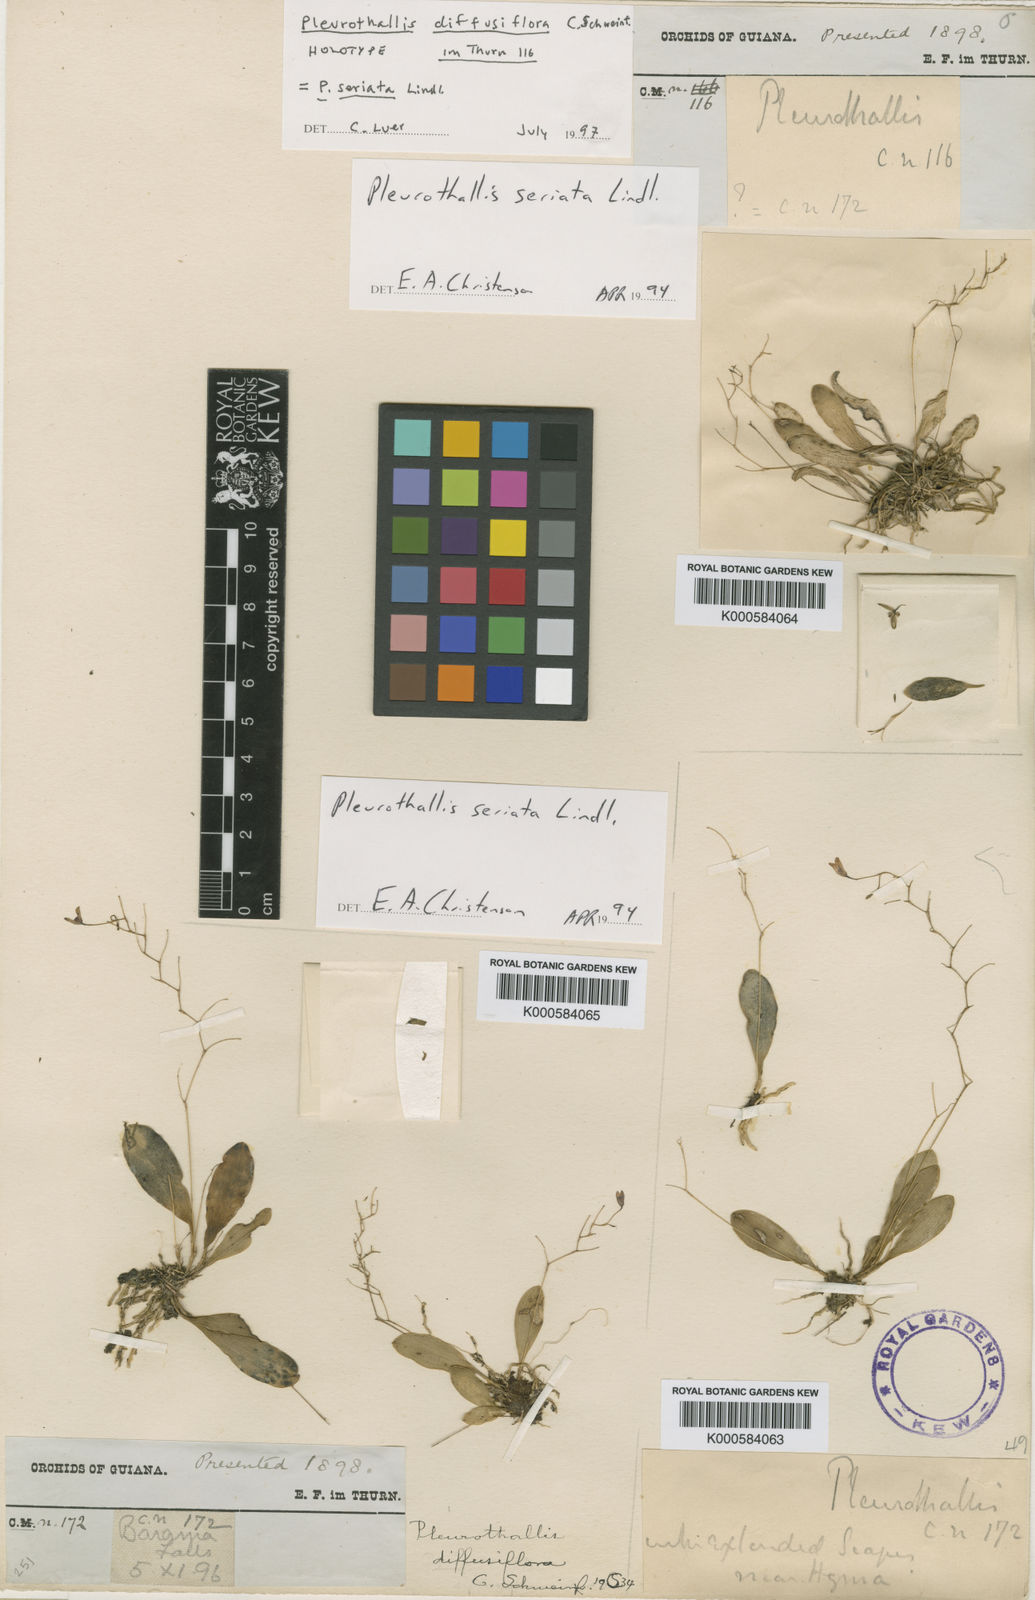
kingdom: Plantae
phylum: Tracheophyta
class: Liliopsida
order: Asparagales
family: Orchidaceae
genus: Pabstiella
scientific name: Pabstiella seriata
